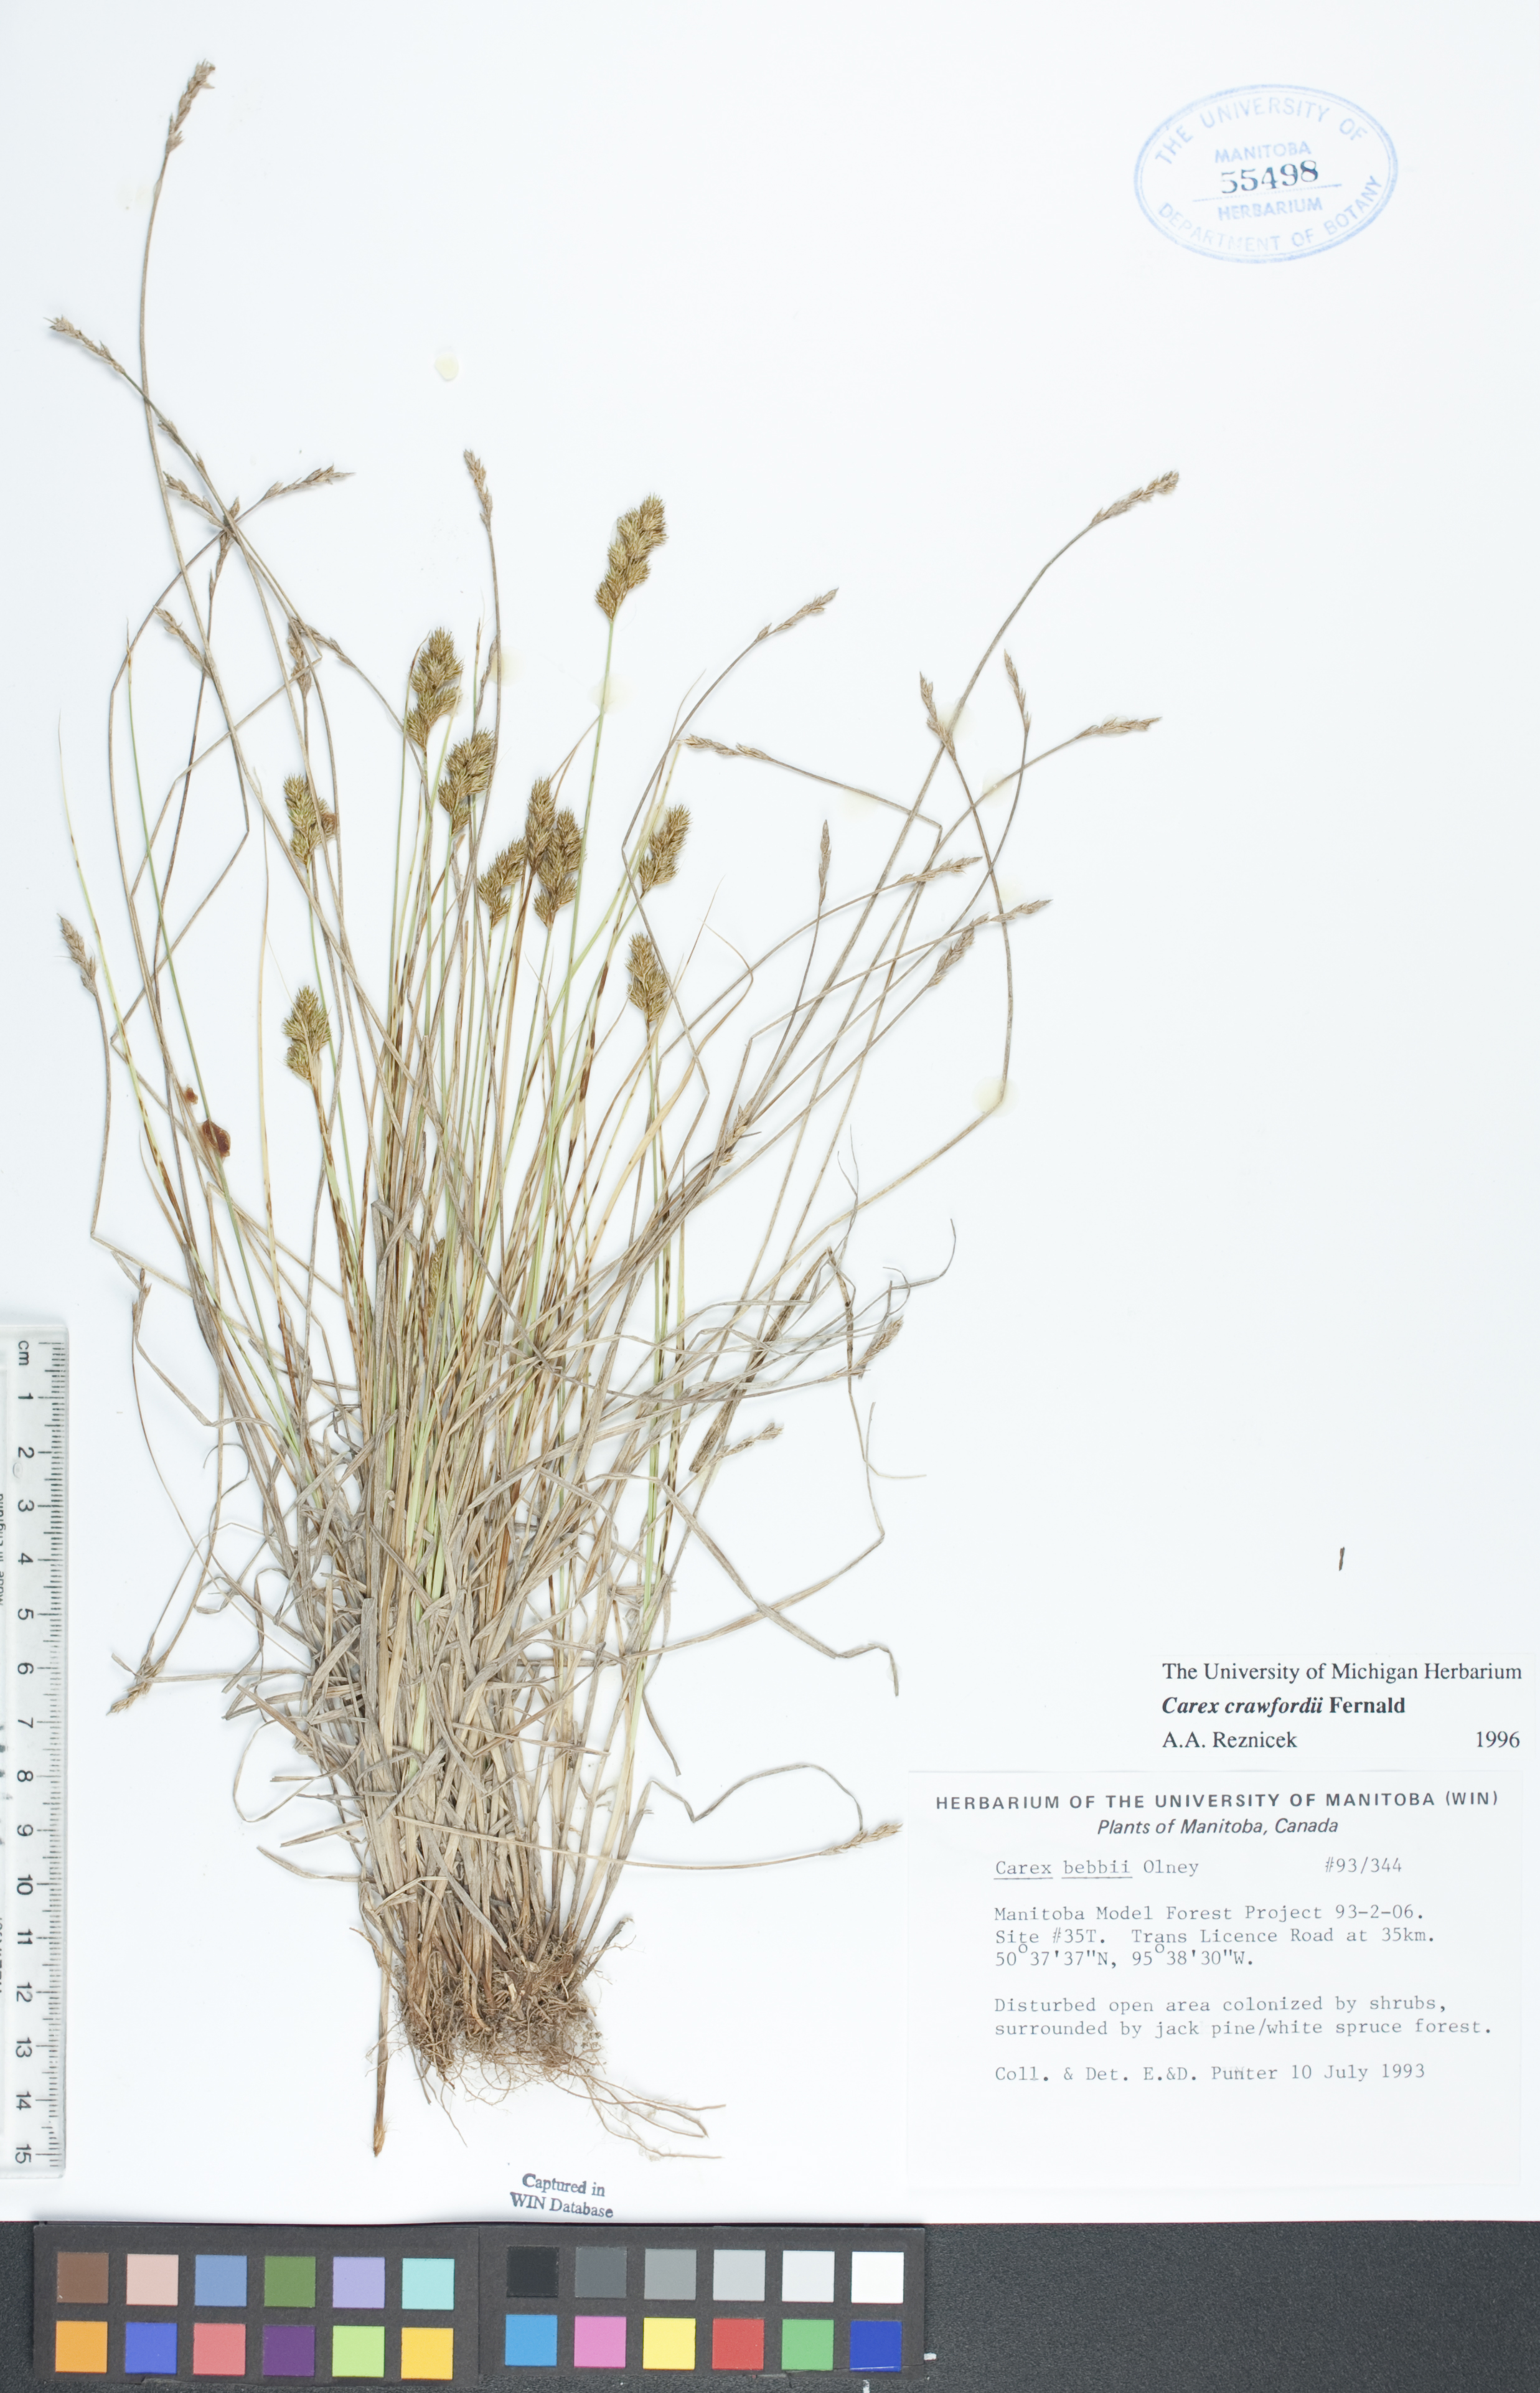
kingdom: Plantae
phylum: Tracheophyta
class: Liliopsida
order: Poales
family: Cyperaceae
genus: Carex
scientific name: Carex crawfordii
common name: Crawford's sedge
